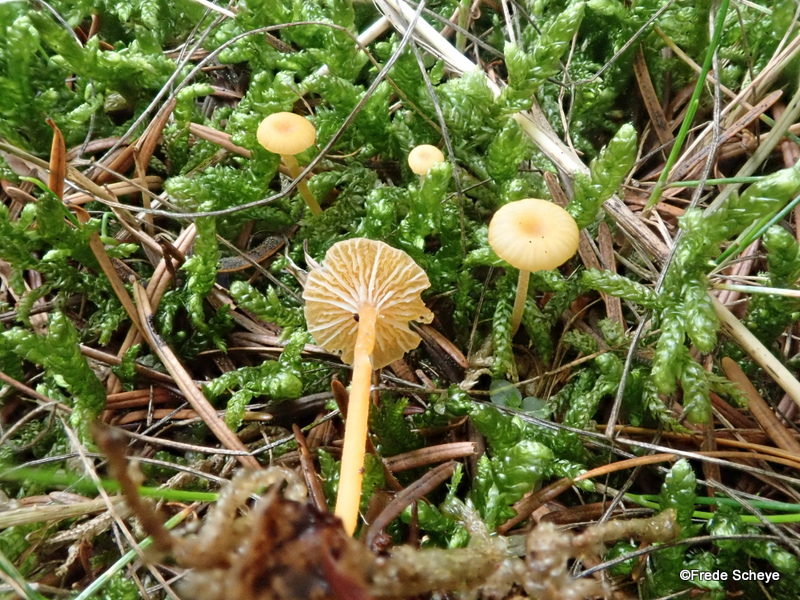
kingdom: Fungi
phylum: Basidiomycota
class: Agaricomycetes
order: Hymenochaetales
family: Rickenellaceae
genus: Rickenella
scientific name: Rickenella fibula
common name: orange mosnavlehat
